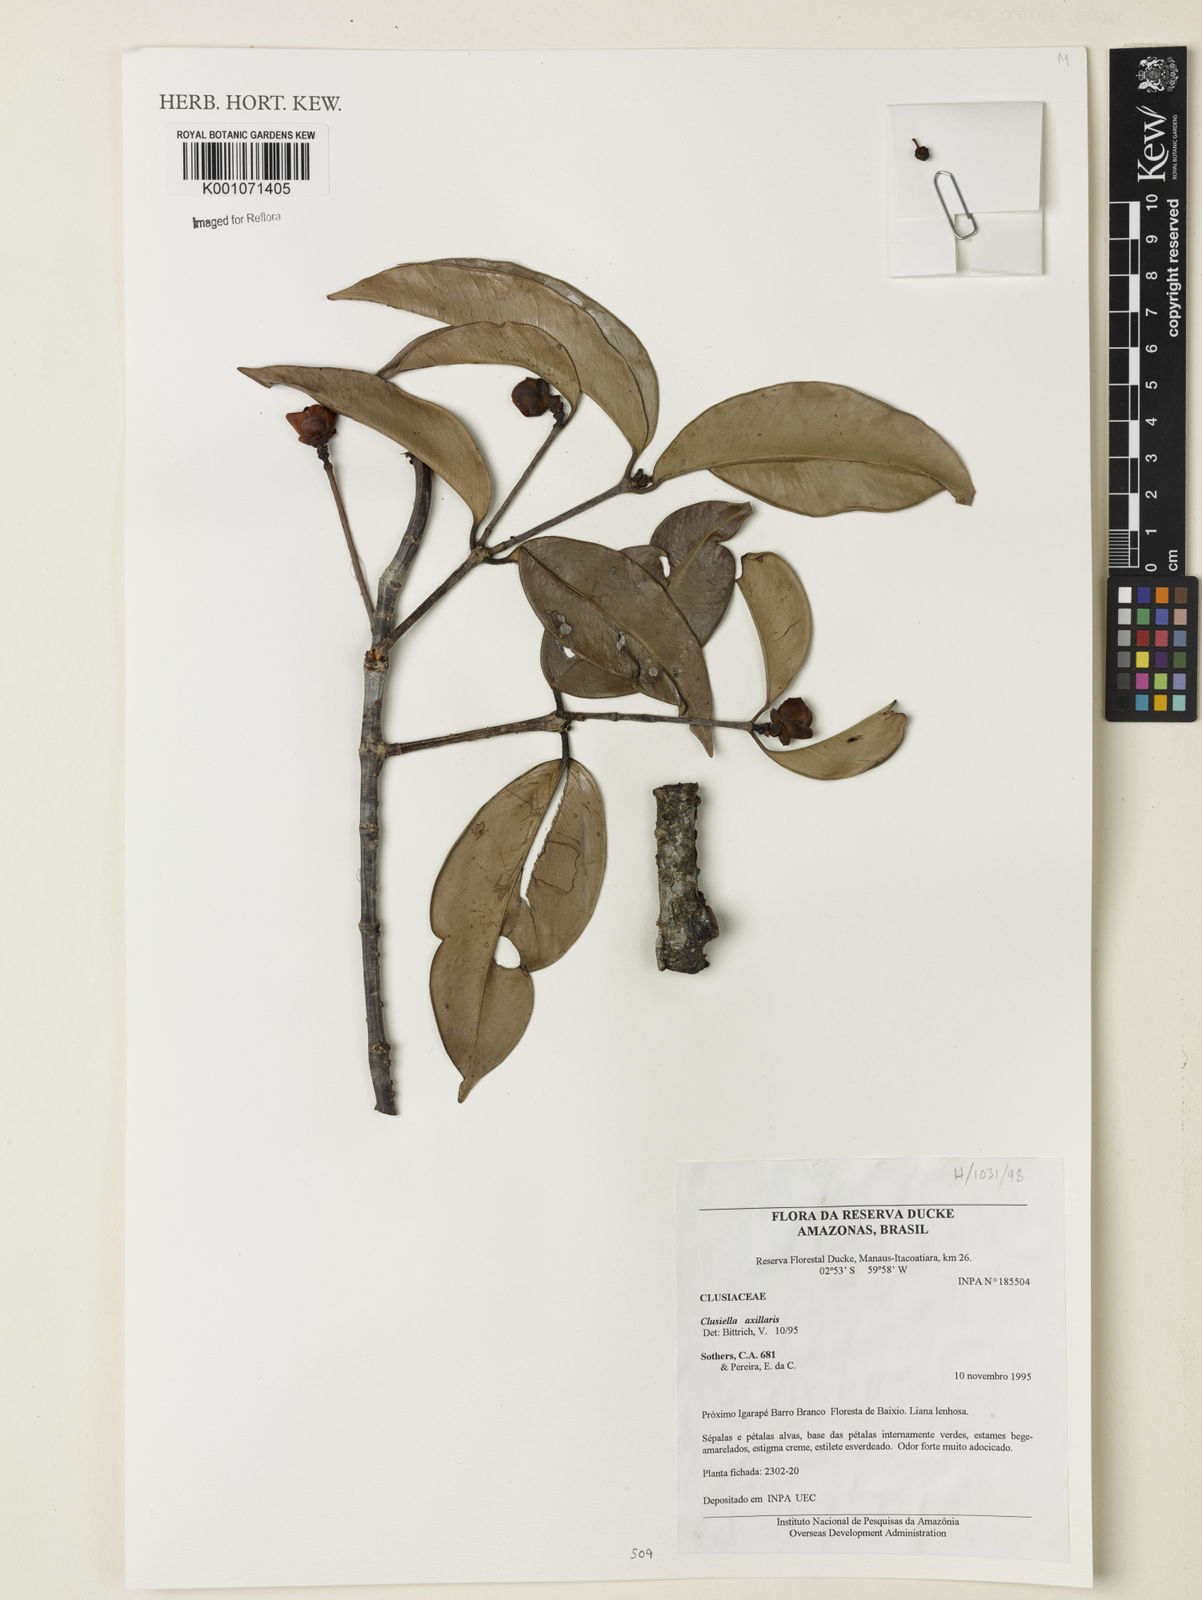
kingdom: Plantae
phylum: Tracheophyta
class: Magnoliopsida
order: Malpighiales
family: Calophyllaceae
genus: Clusiella
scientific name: Clusiella axillaris
